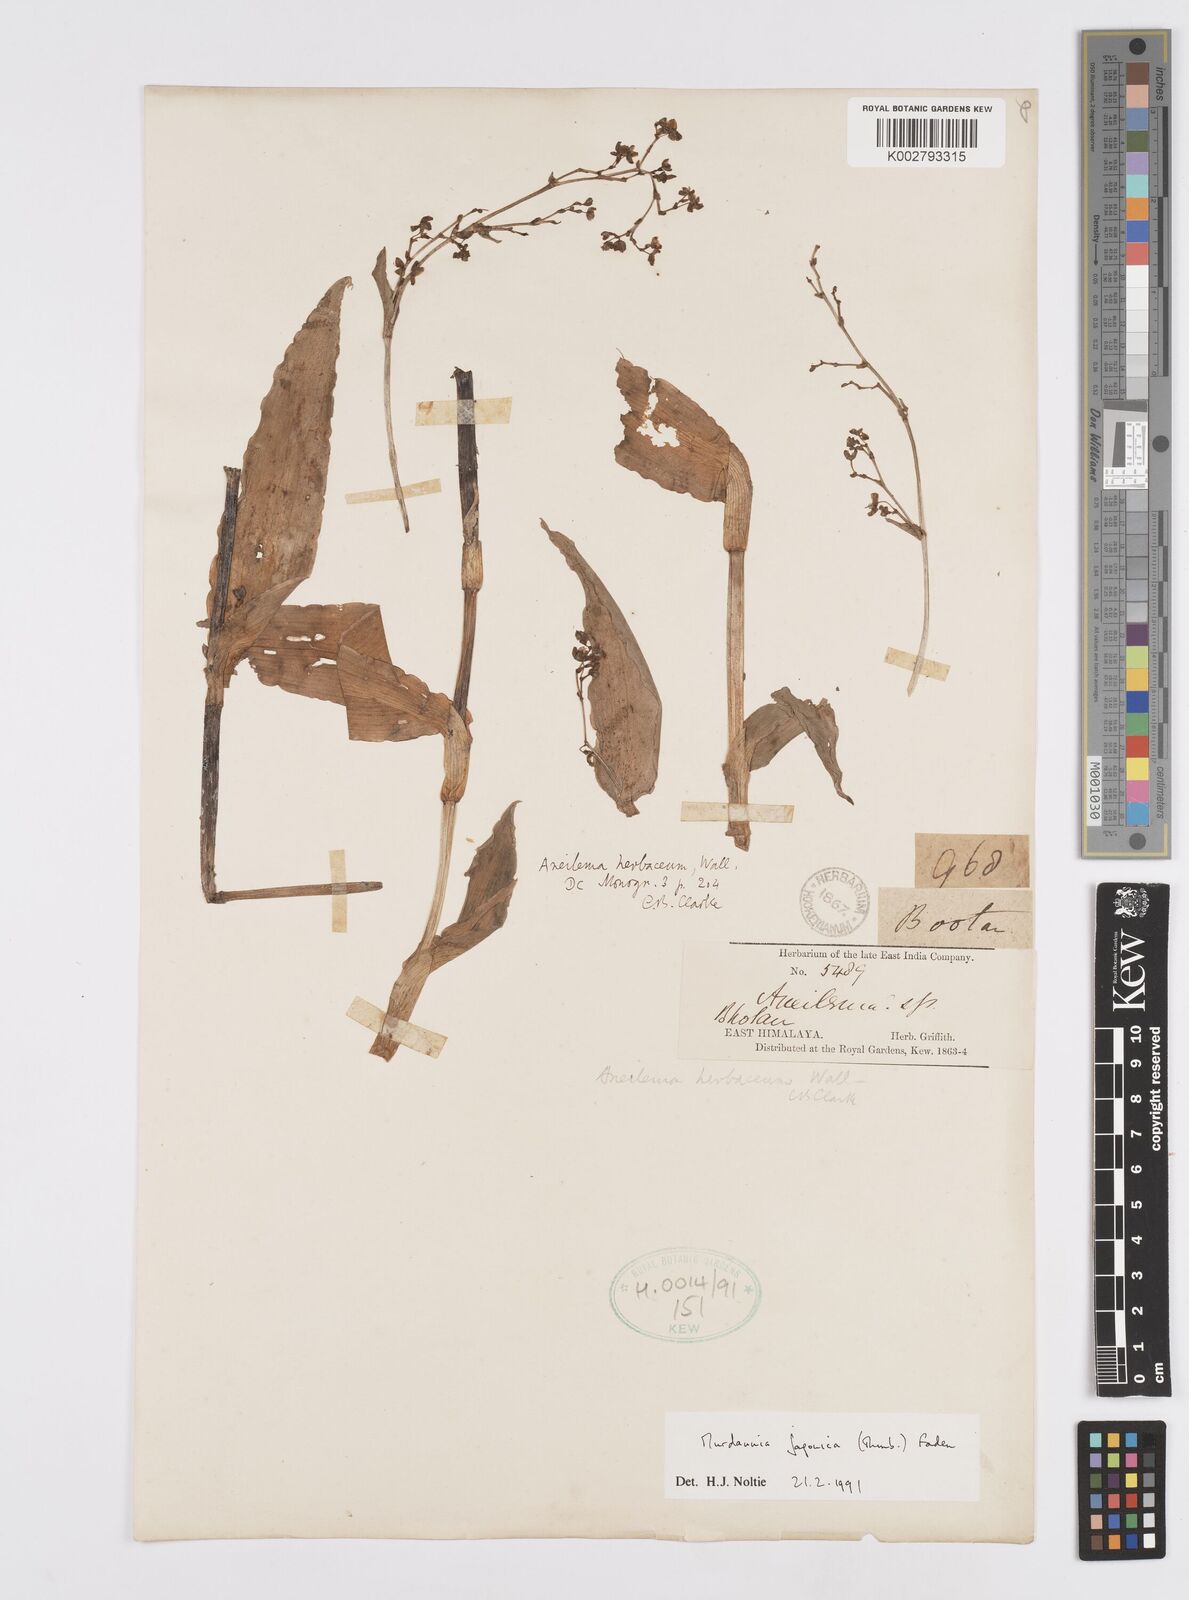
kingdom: Plantae
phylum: Tracheophyta
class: Liliopsida
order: Commelinales
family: Commelinaceae
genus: Murdannia
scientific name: Murdannia japonica
